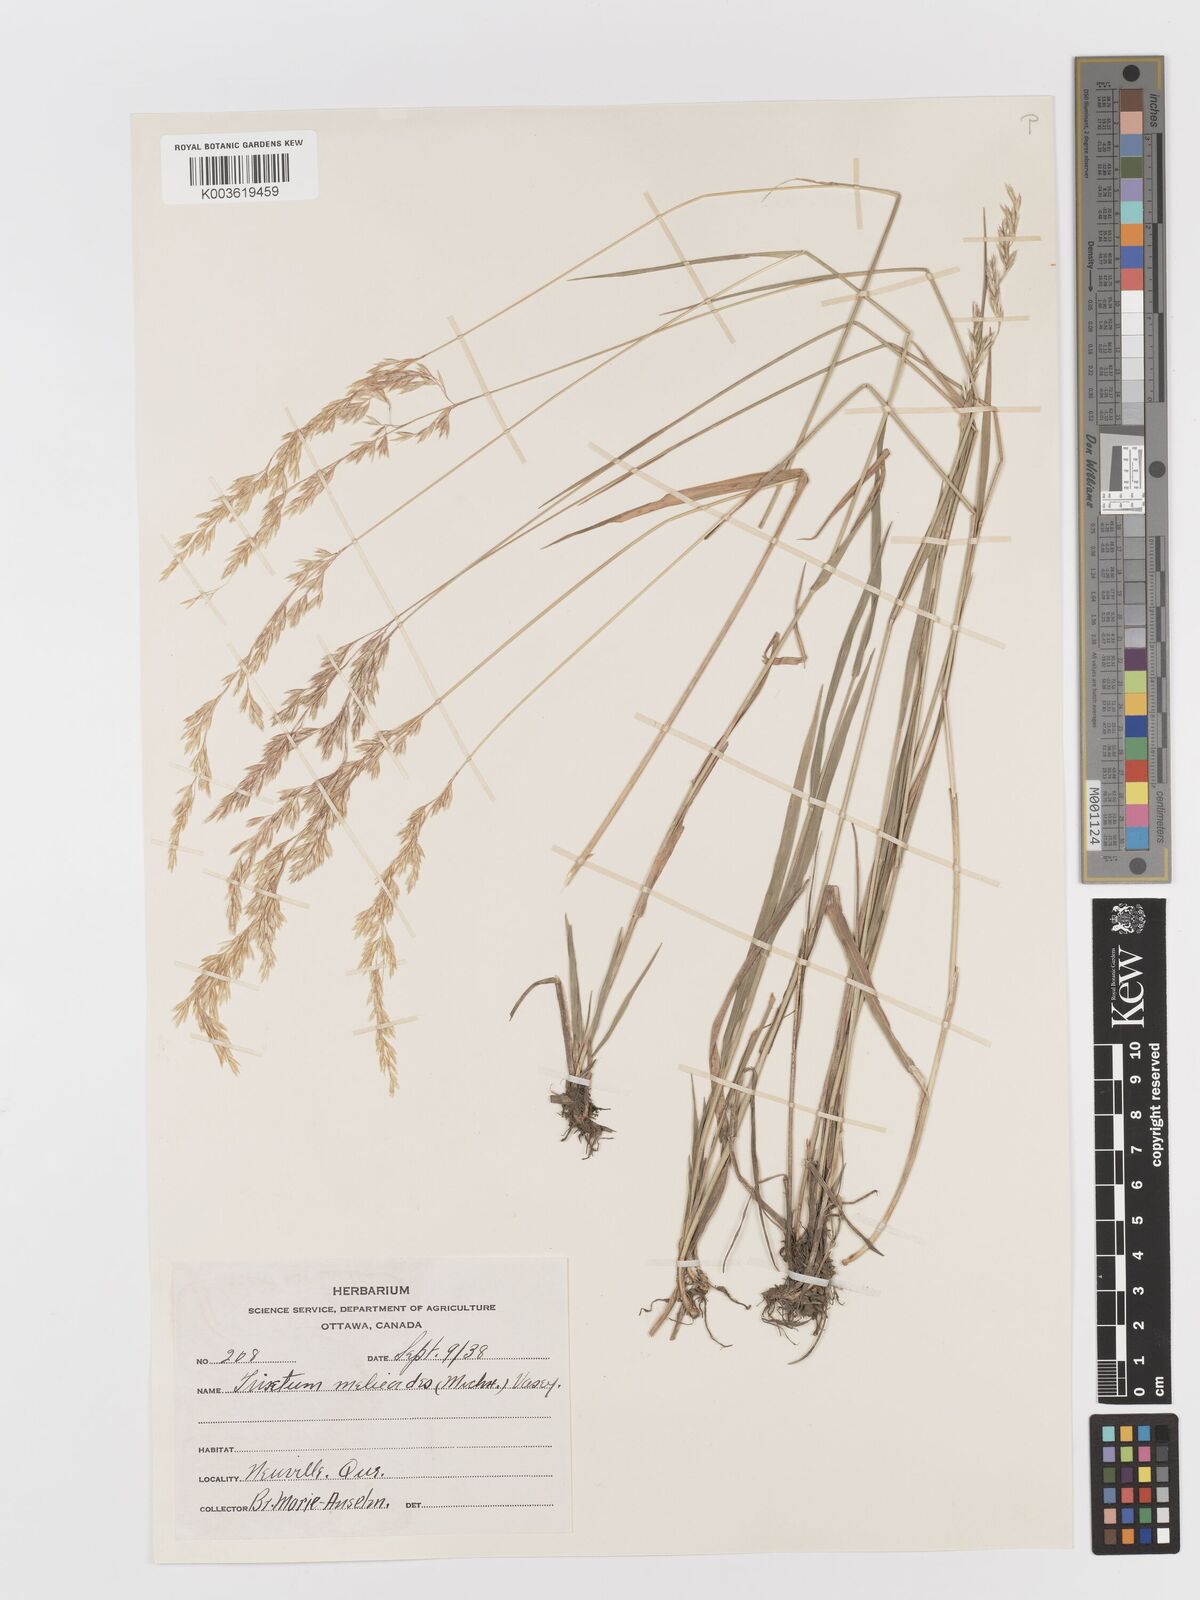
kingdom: Plantae
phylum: Tracheophyta
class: Liliopsida
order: Poales
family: Poaceae
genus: Graphephorum
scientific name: Graphephorum melicoides
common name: False melic
